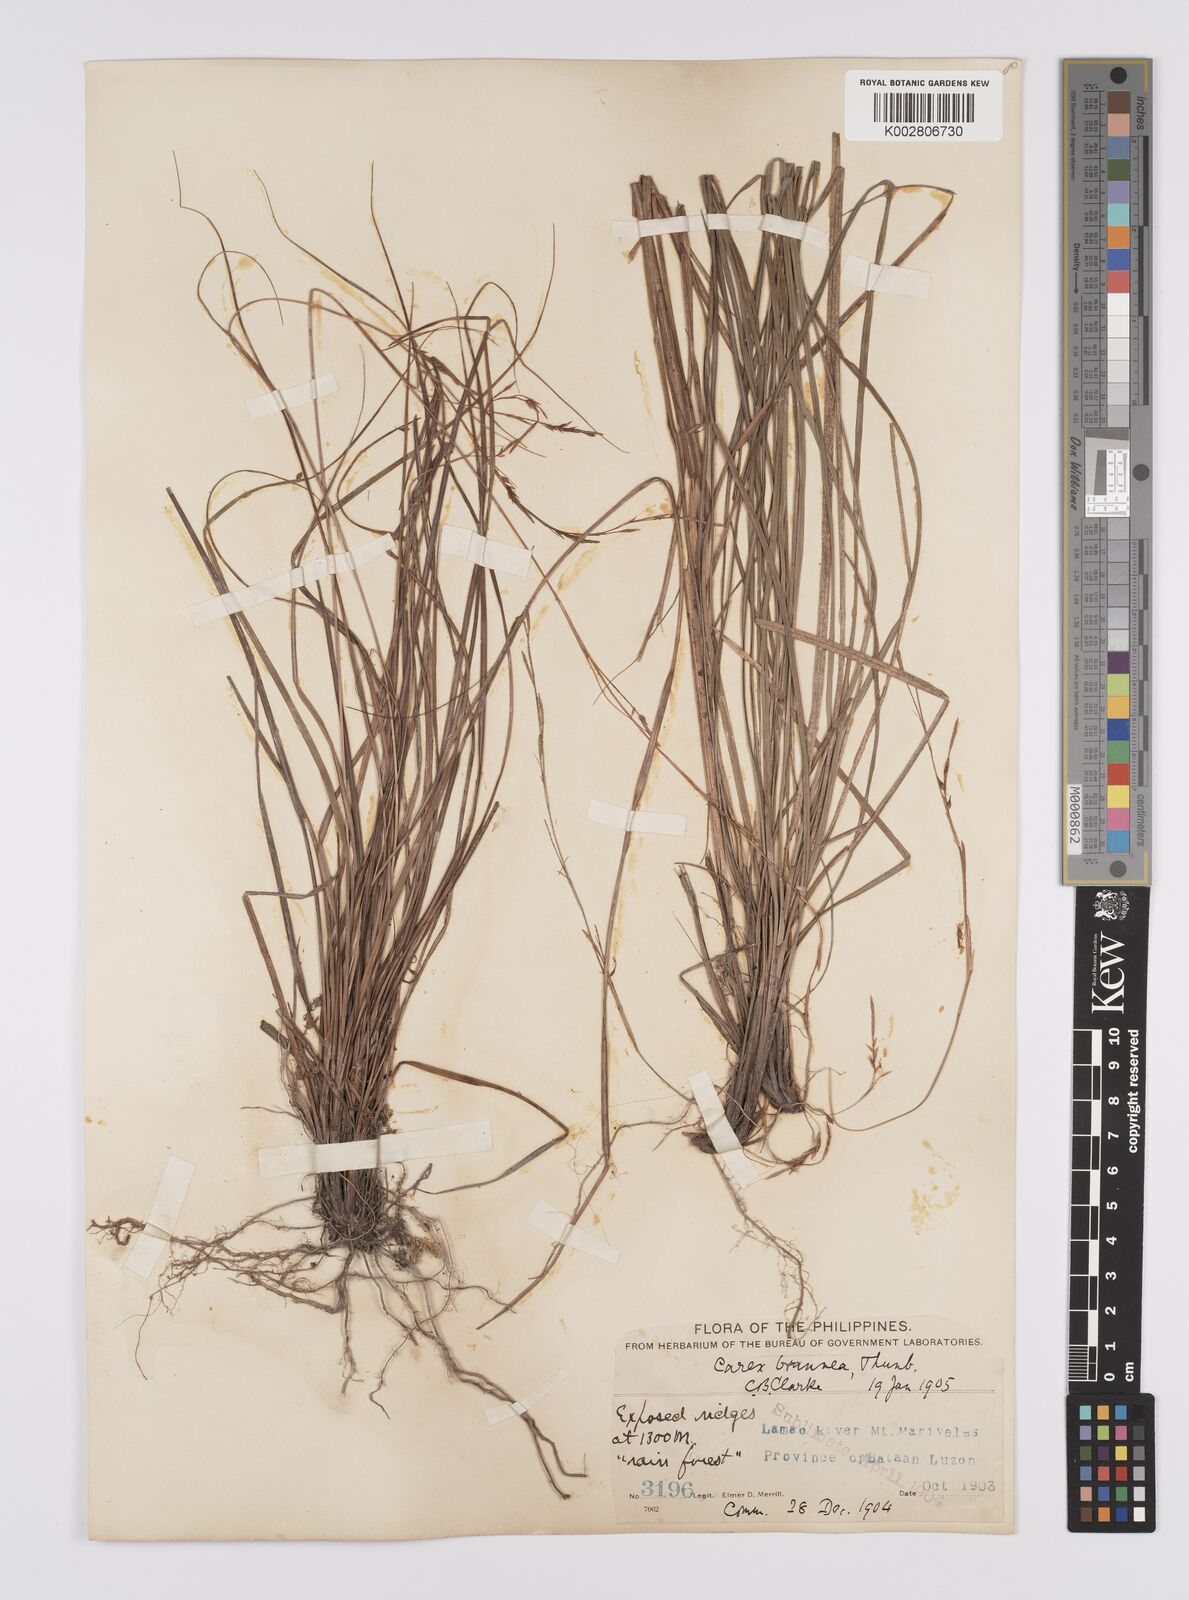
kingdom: Plantae
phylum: Tracheophyta
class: Liliopsida
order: Poales
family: Cyperaceae
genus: Carex
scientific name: Carex brunnea
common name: Greater brown sedge
